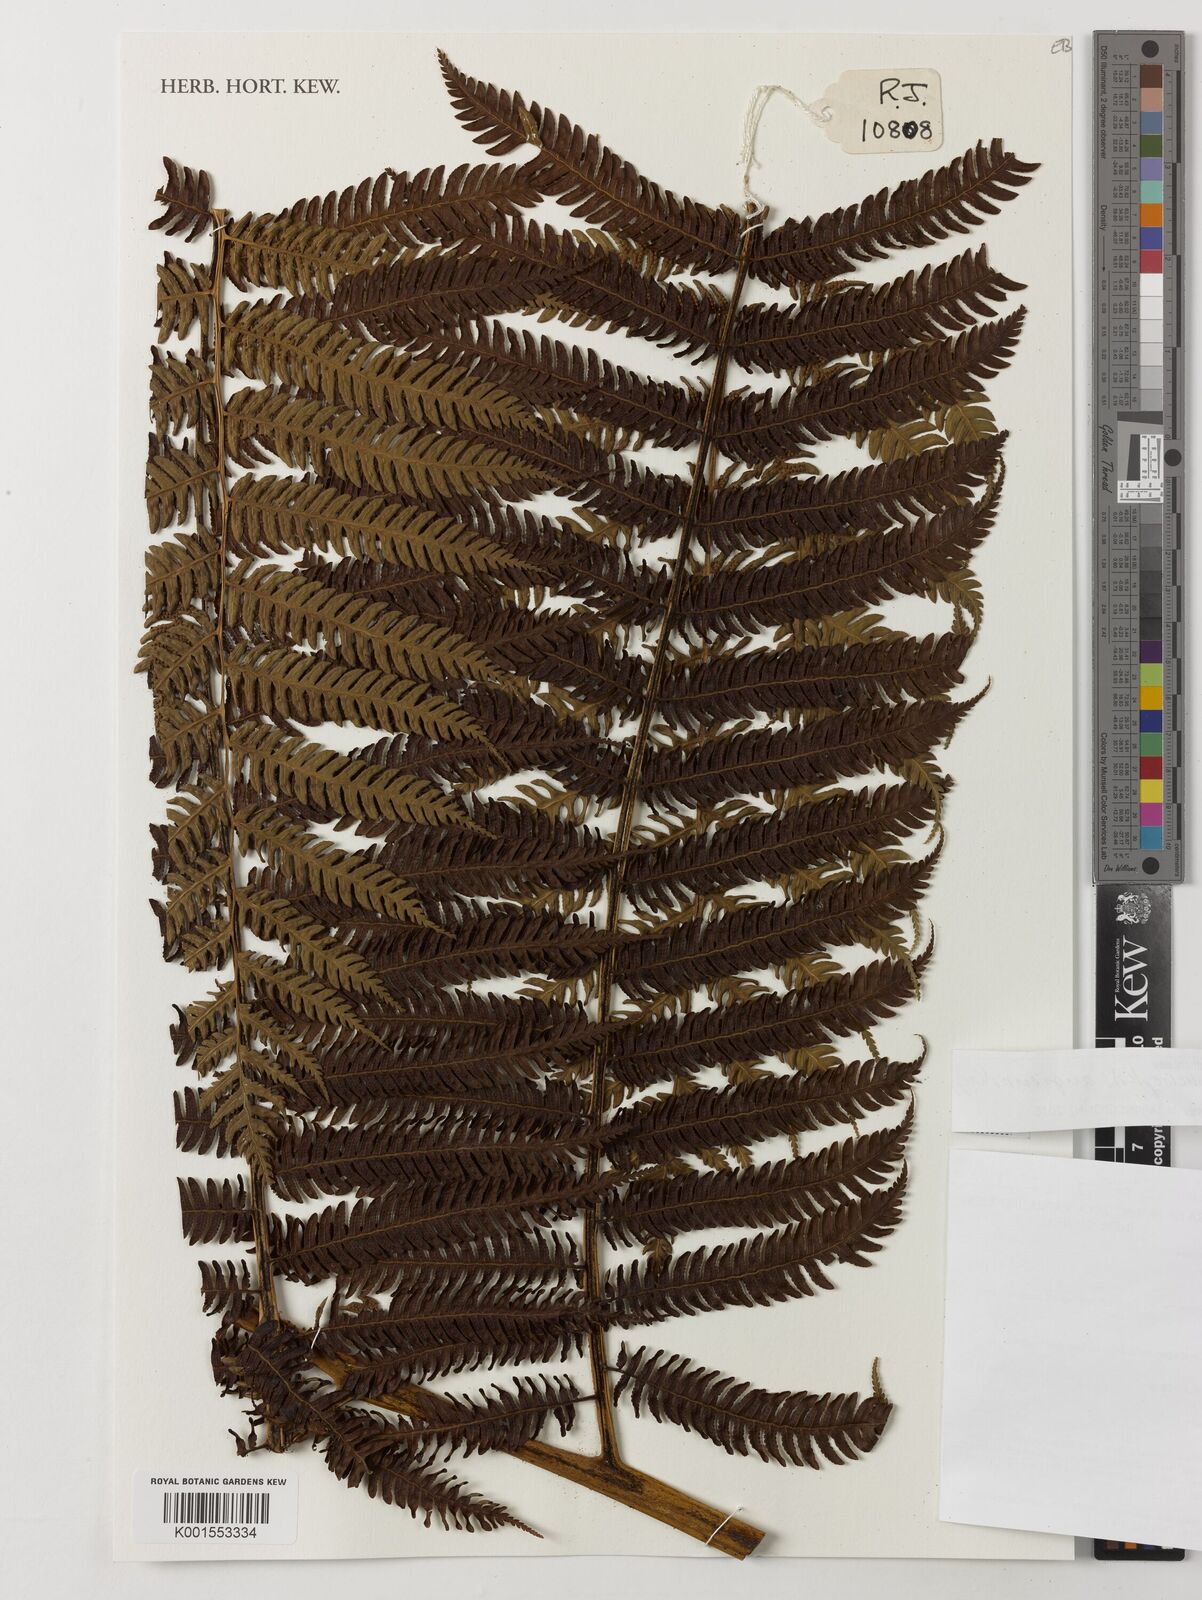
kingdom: Plantae
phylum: Tracheophyta
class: Polypodiopsida
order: Cyatheales
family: Cyatheaceae
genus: Sphaeropteris
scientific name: Sphaeropteris
